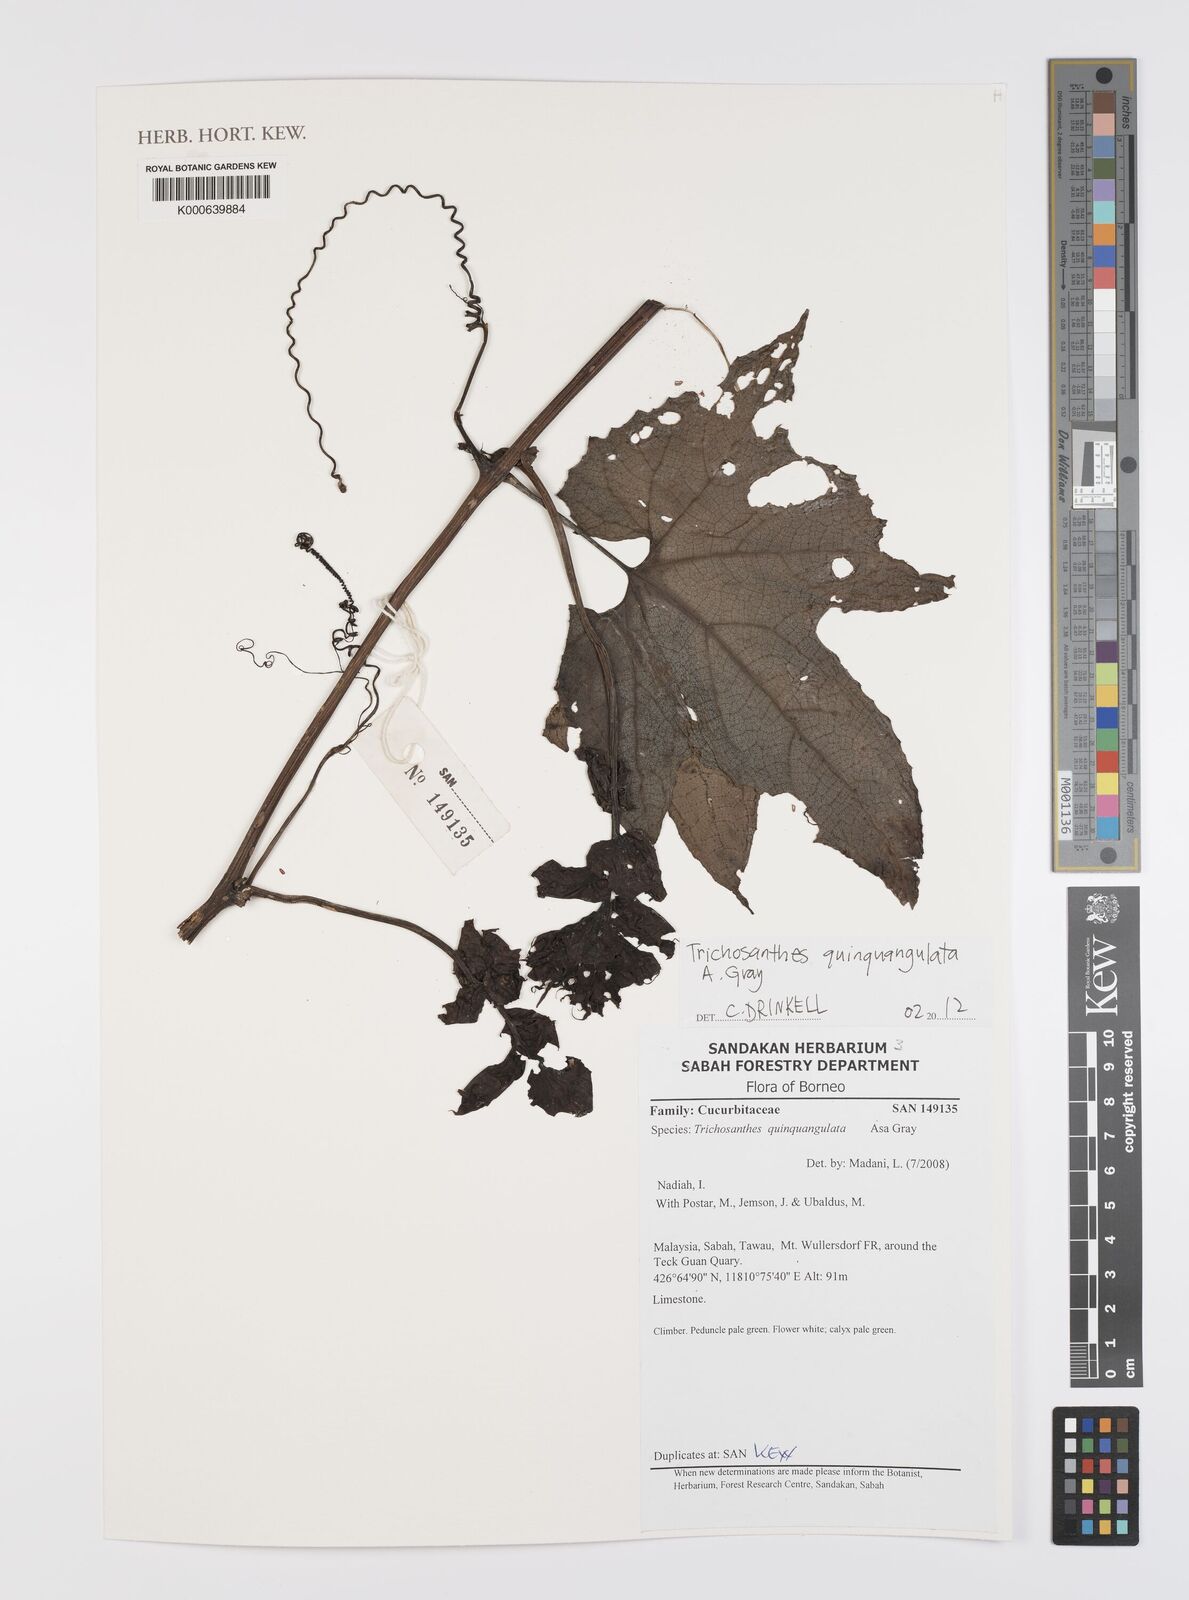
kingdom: Plantae
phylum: Tracheophyta
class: Magnoliopsida
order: Cucurbitales
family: Cucurbitaceae
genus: Trichosanthes
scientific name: Trichosanthes quinquangulata
